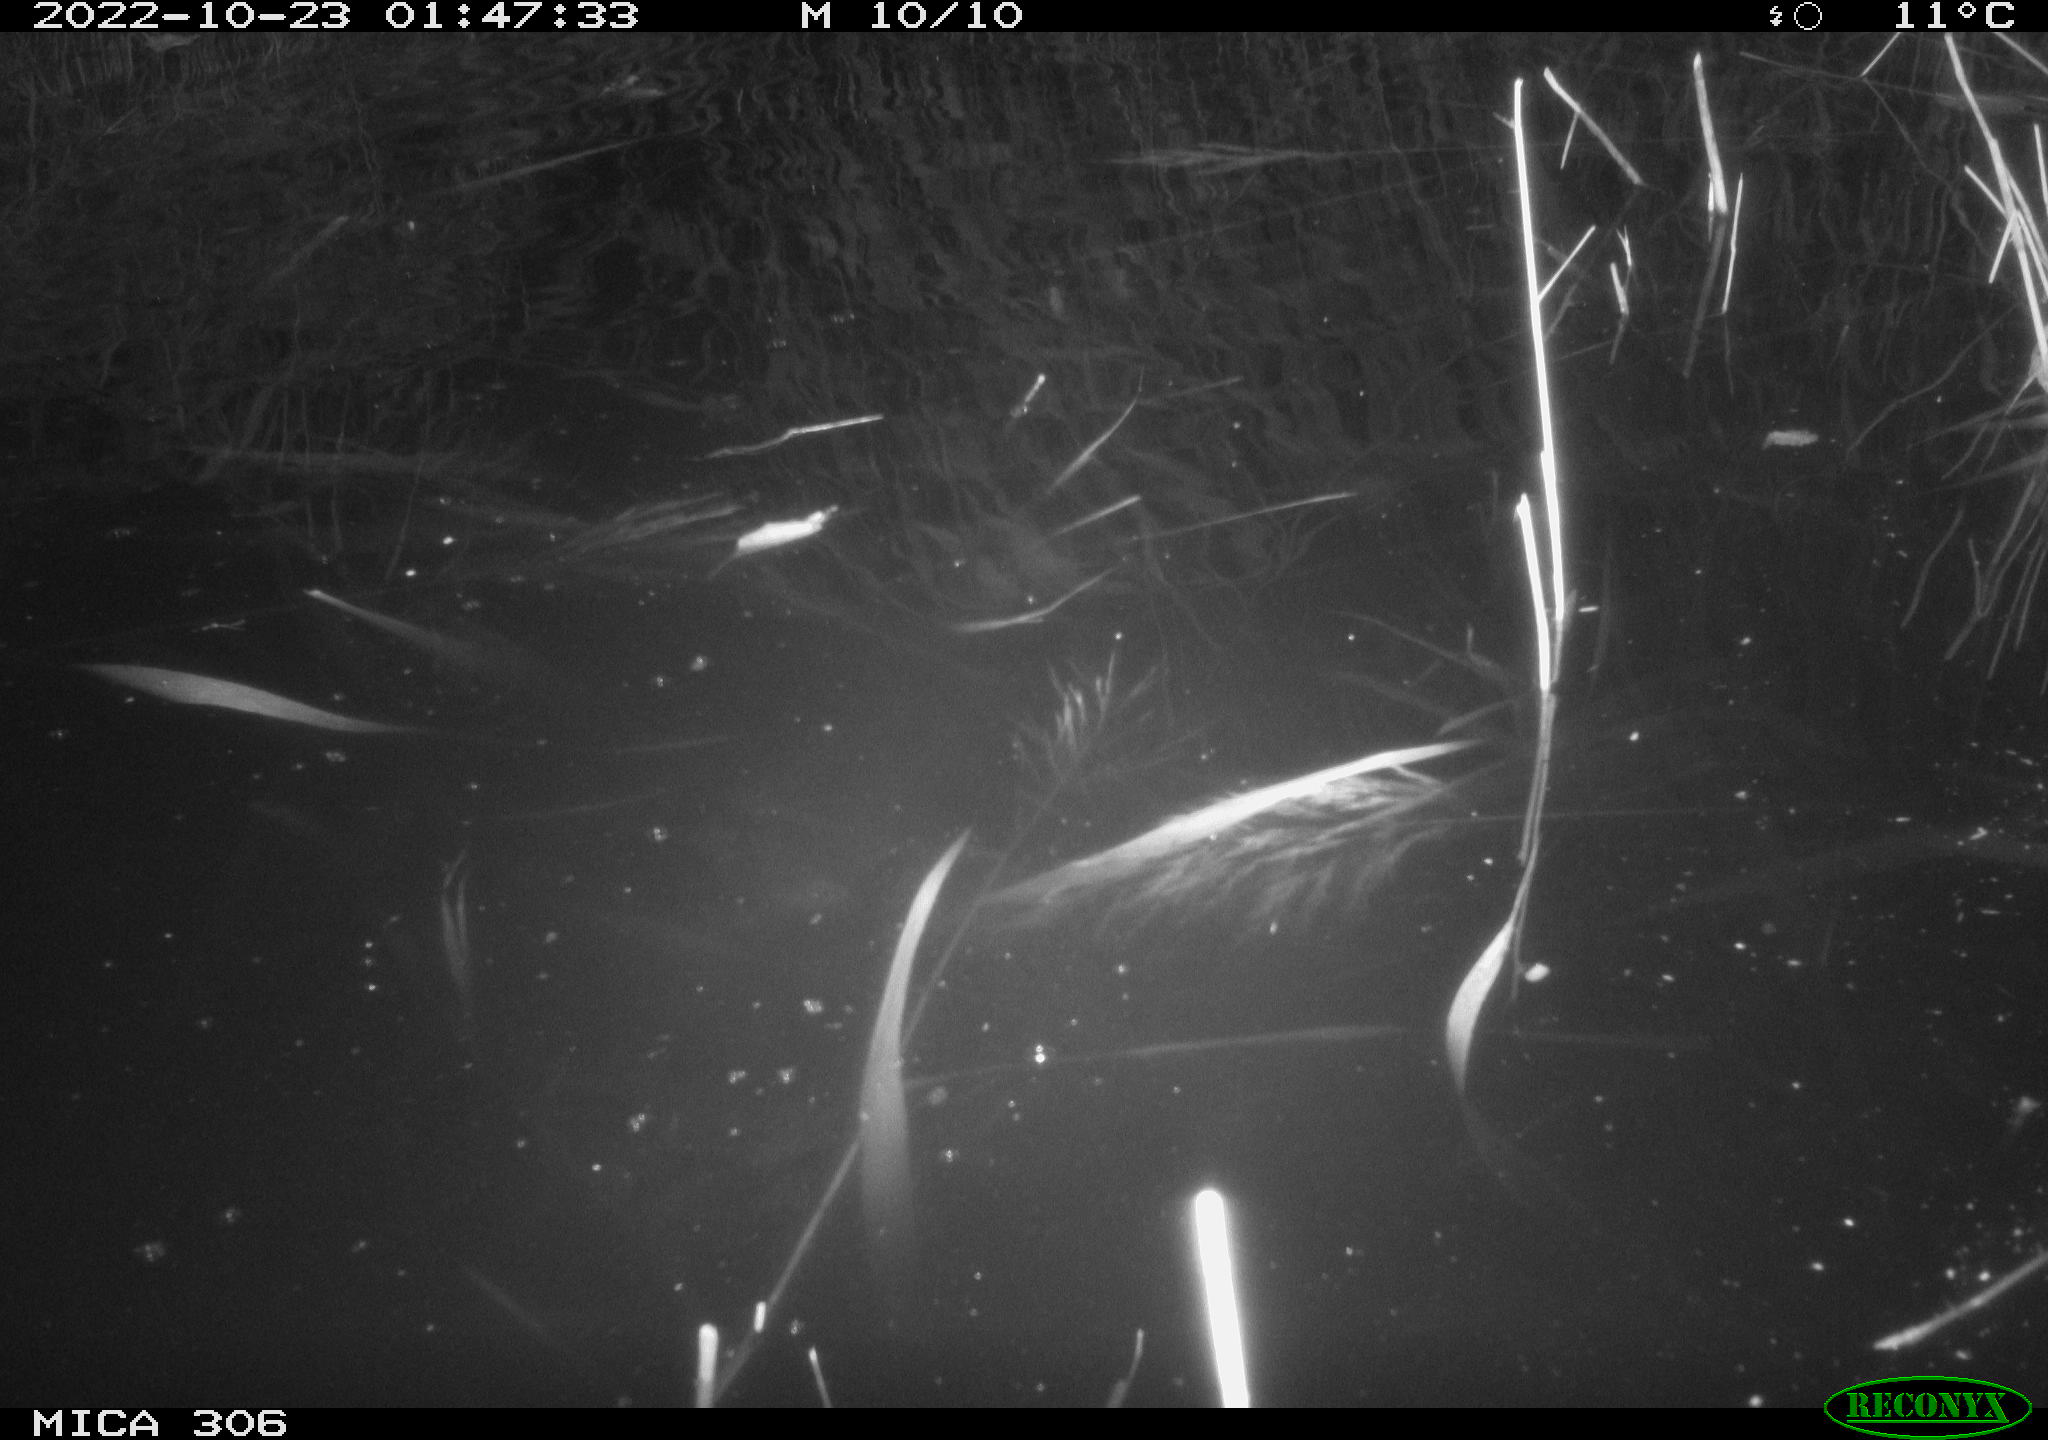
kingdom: Animalia
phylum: Chordata
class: Mammalia
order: Rodentia
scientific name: Rodentia
